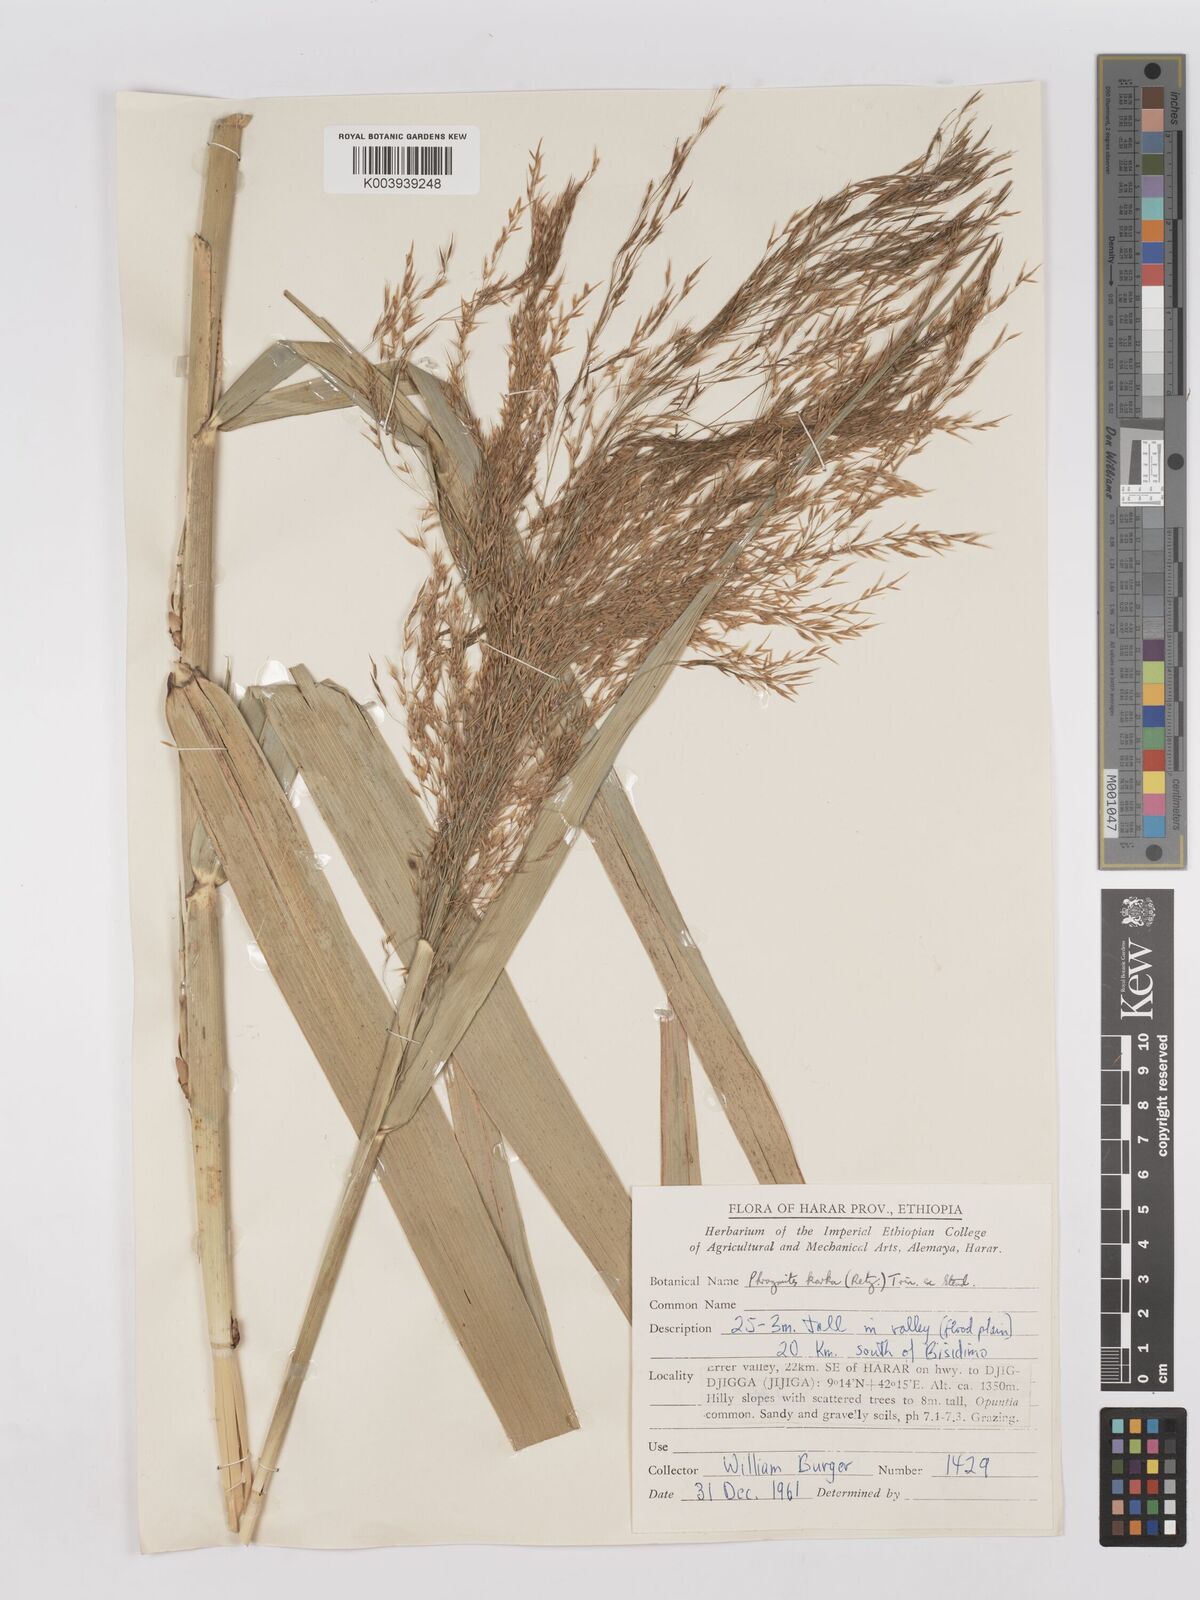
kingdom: Plantae
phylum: Tracheophyta
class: Liliopsida
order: Poales
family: Poaceae
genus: Phragmites
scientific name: Phragmites karka
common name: Tropical reed
